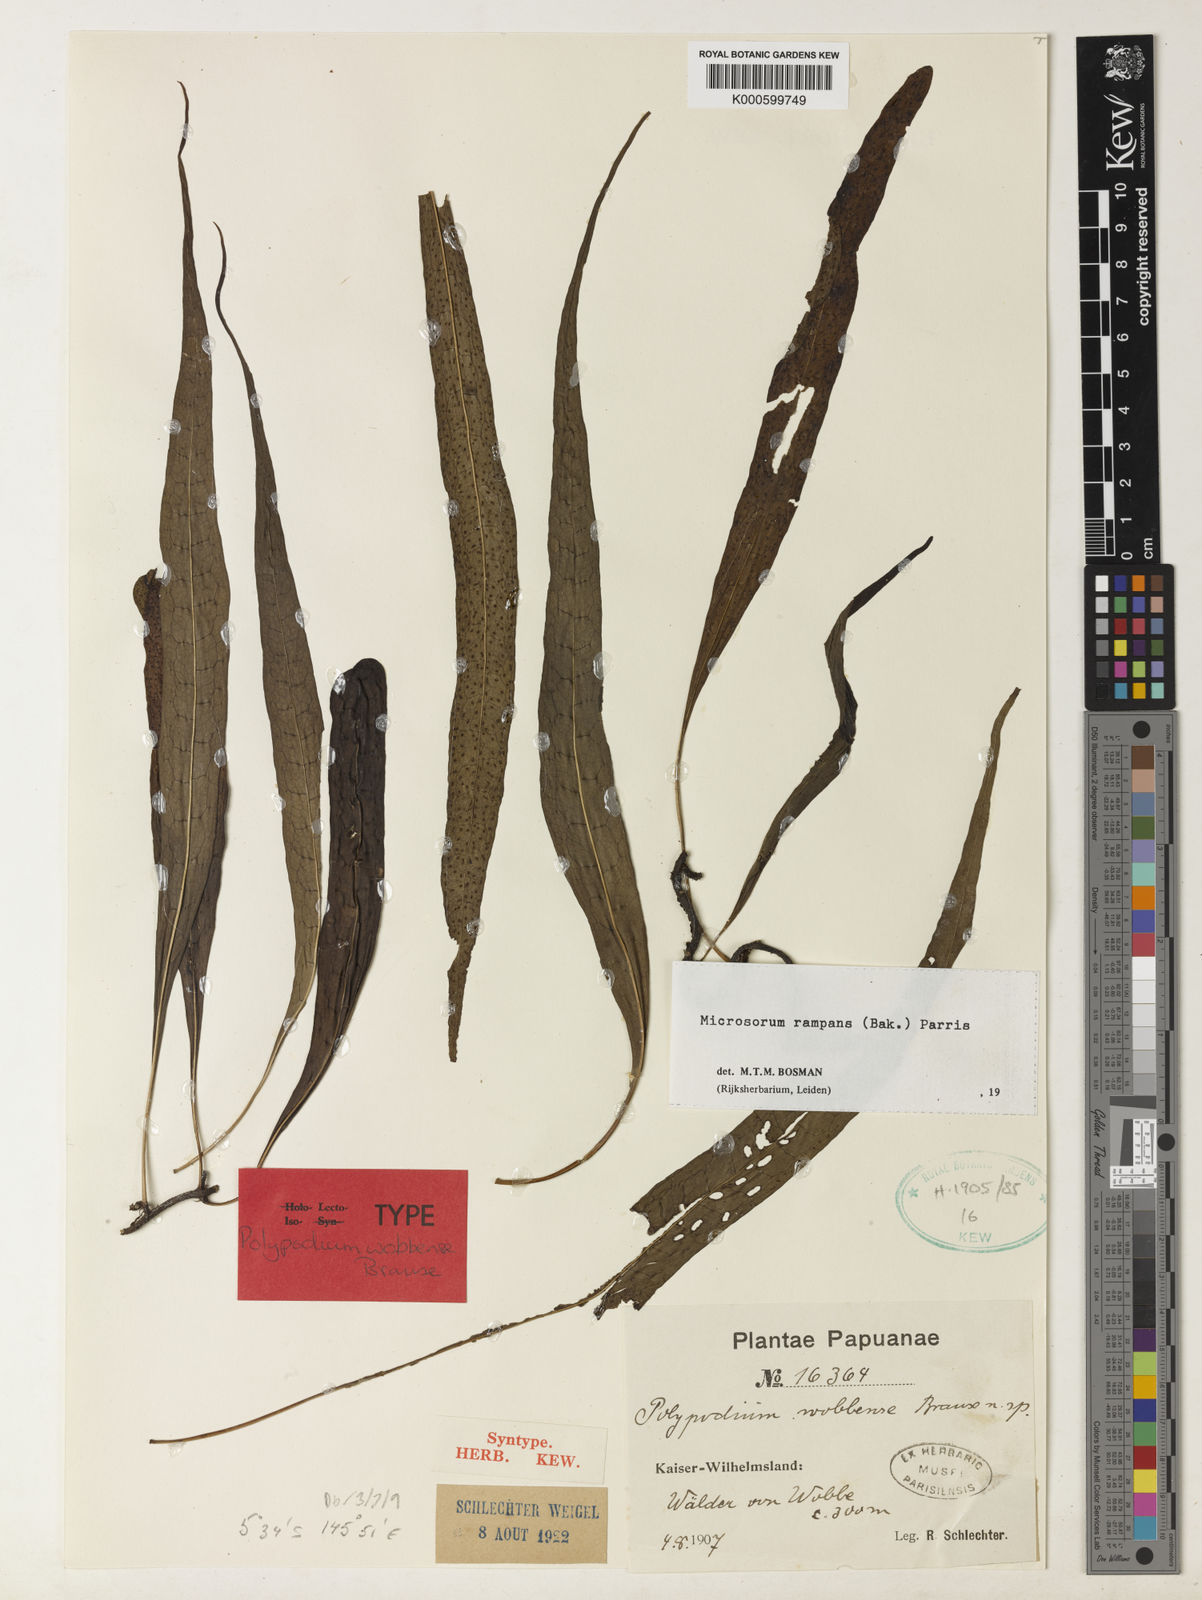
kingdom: Plantae
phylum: Tracheophyta
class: Polypodiopsida
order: Polypodiales
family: Polypodiaceae
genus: Microsorum
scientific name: Microsorum rampans
